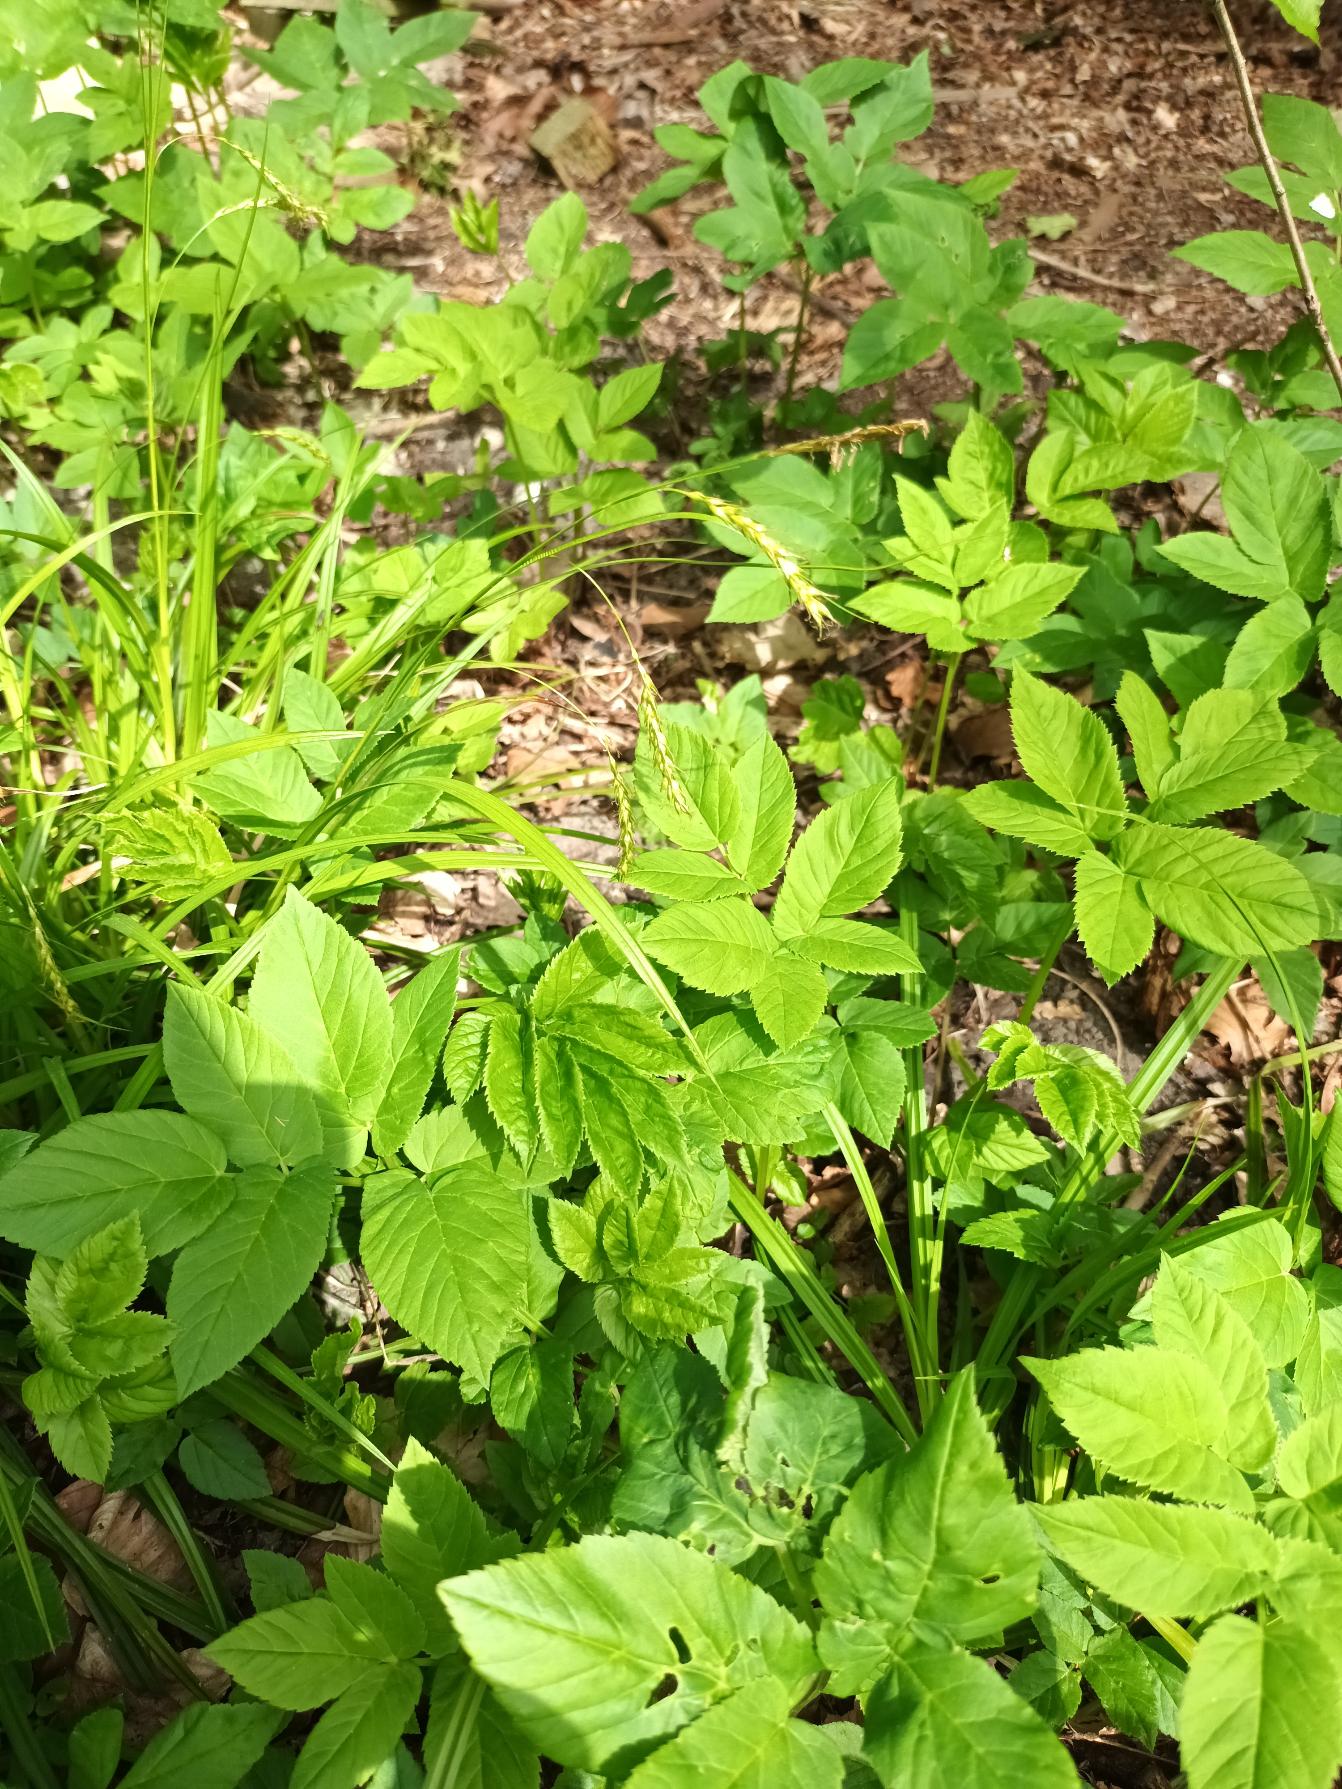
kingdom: Plantae
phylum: Tracheophyta
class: Liliopsida
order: Poales
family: Cyperaceae
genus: Carex
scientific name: Carex sylvatica
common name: Skov-star
